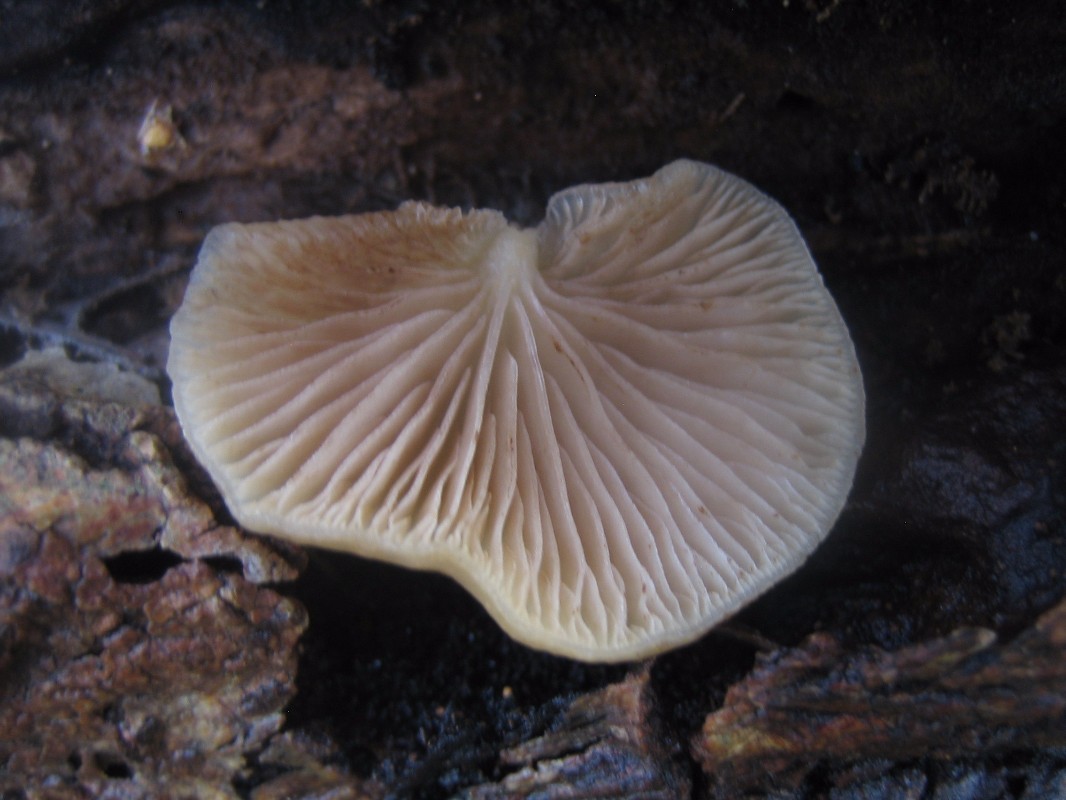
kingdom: Fungi
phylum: Basidiomycota
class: Agaricomycetes
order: Agaricales
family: Crepidotaceae
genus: Crepidotus
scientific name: Crepidotus mollis
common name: blød muslingesvamp
